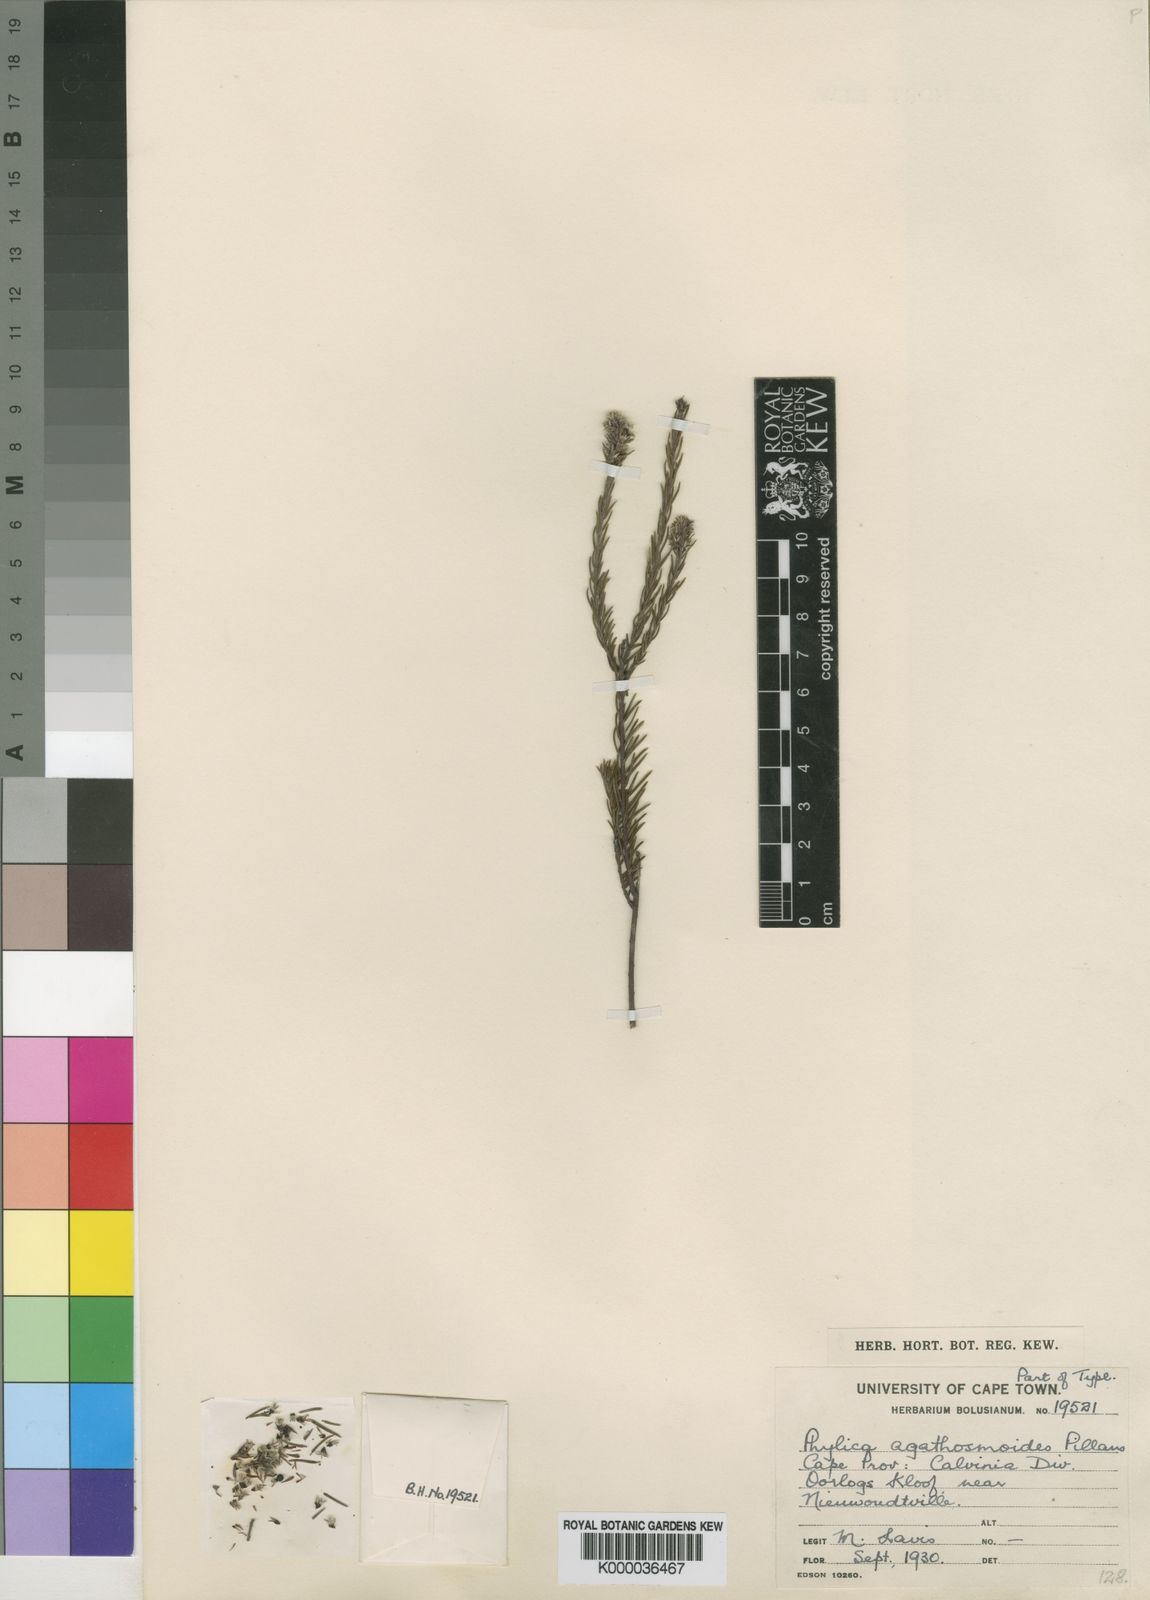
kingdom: Plantae
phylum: Tracheophyta
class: Magnoliopsida
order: Rosales
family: Rhamnaceae
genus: Phylica
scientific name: Phylica agathosmoides
